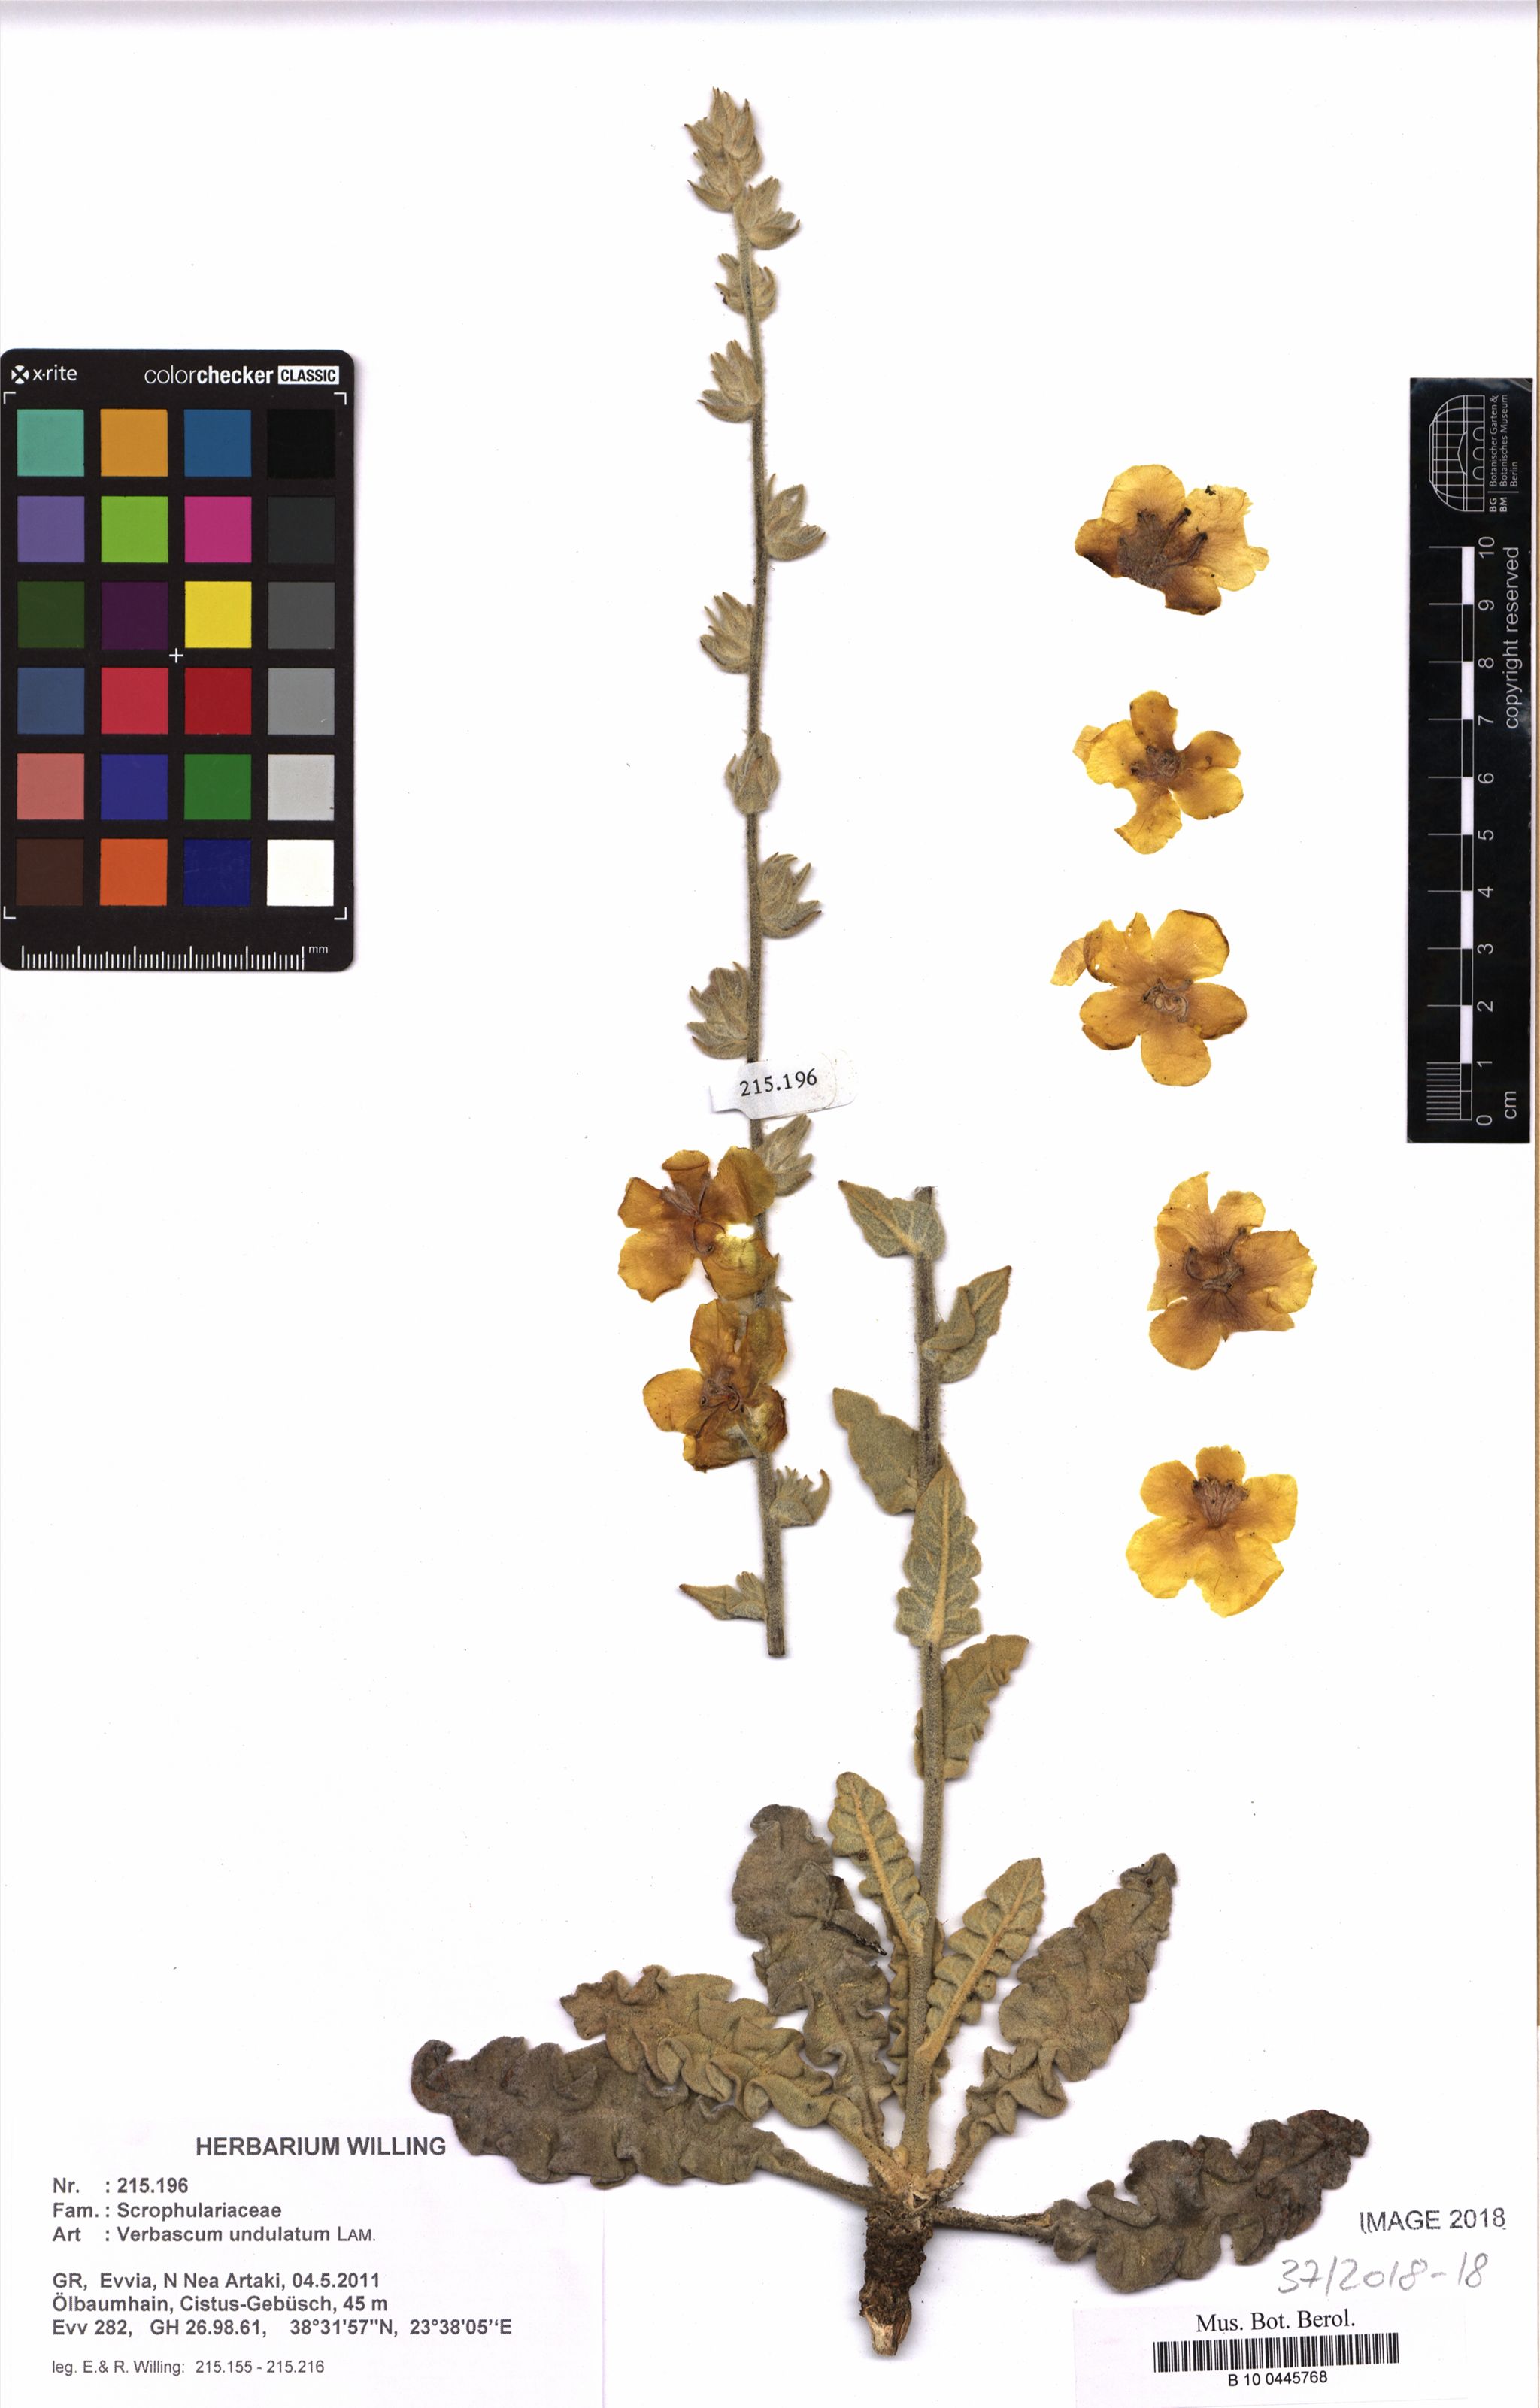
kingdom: Plantae
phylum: Tracheophyta
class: Magnoliopsida
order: Lamiales
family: Scrophulariaceae
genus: Verbascum
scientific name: Verbascum undulatum
